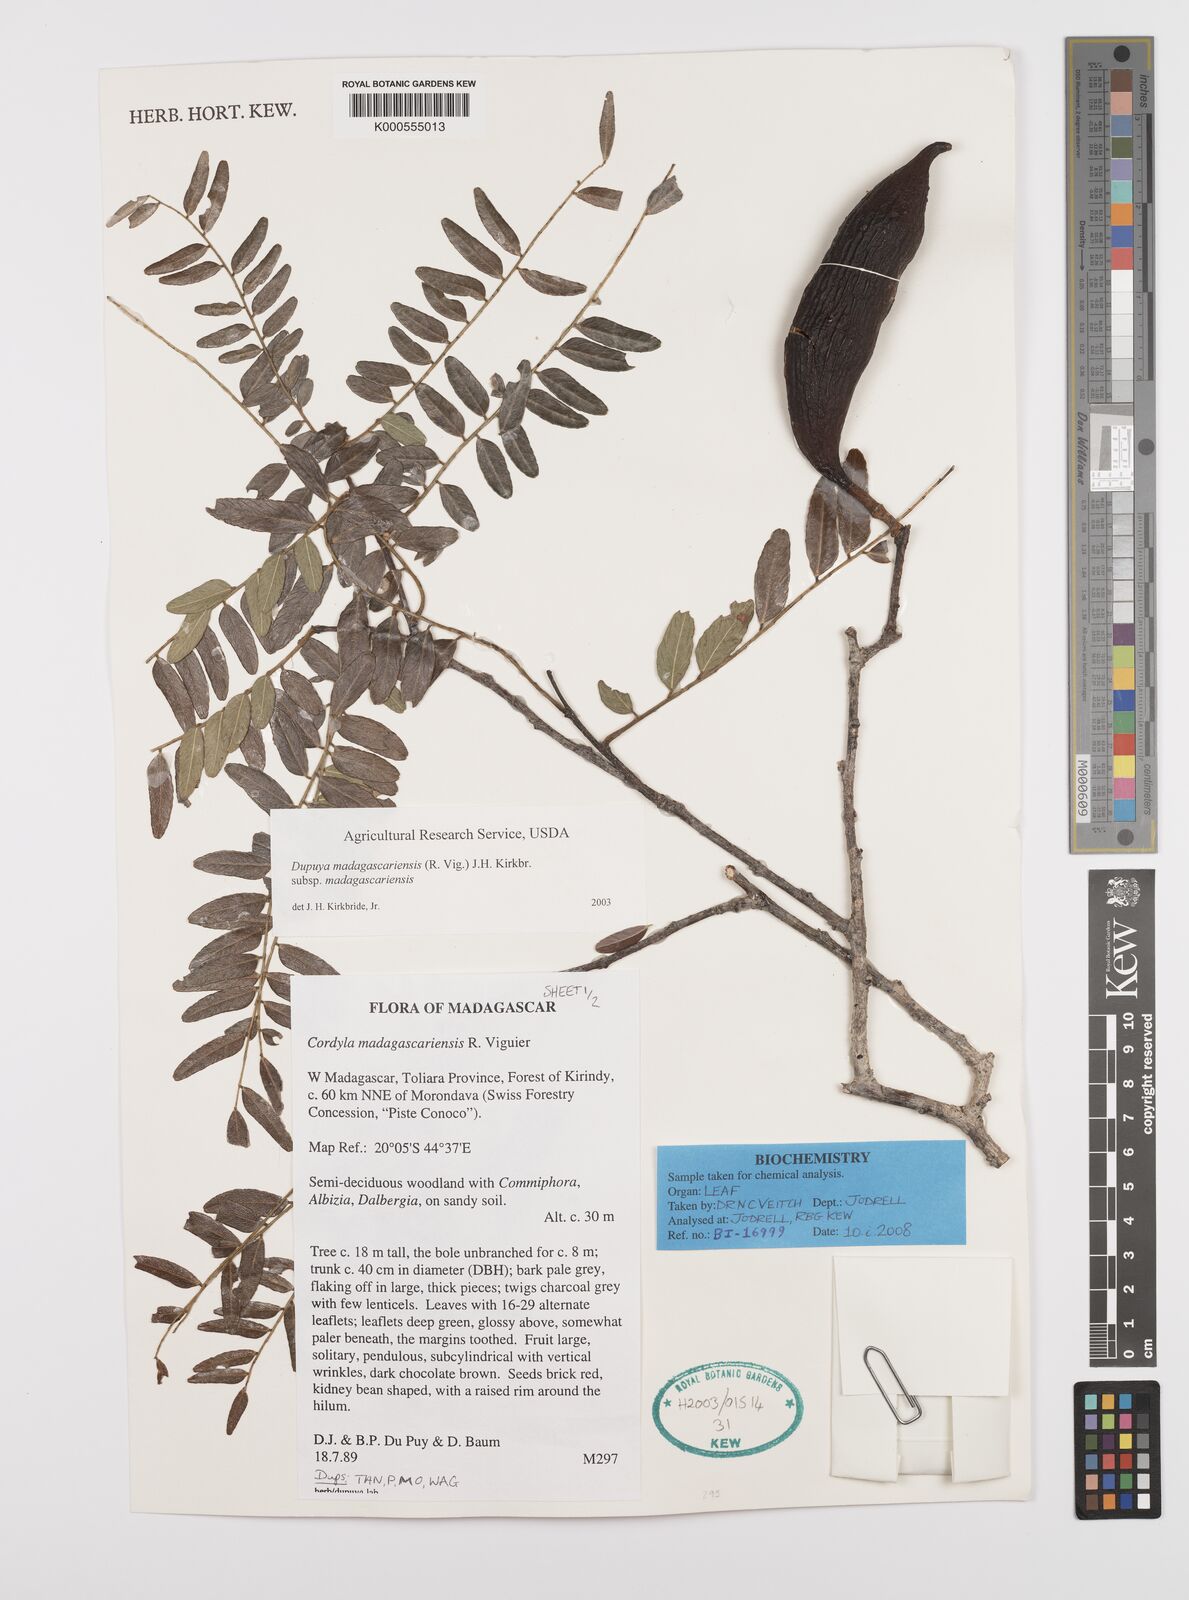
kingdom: Plantae
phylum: Tracheophyta
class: Magnoliopsida
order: Fabales
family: Fabaceae
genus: Cordyla
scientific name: Cordyla madagascariensis
